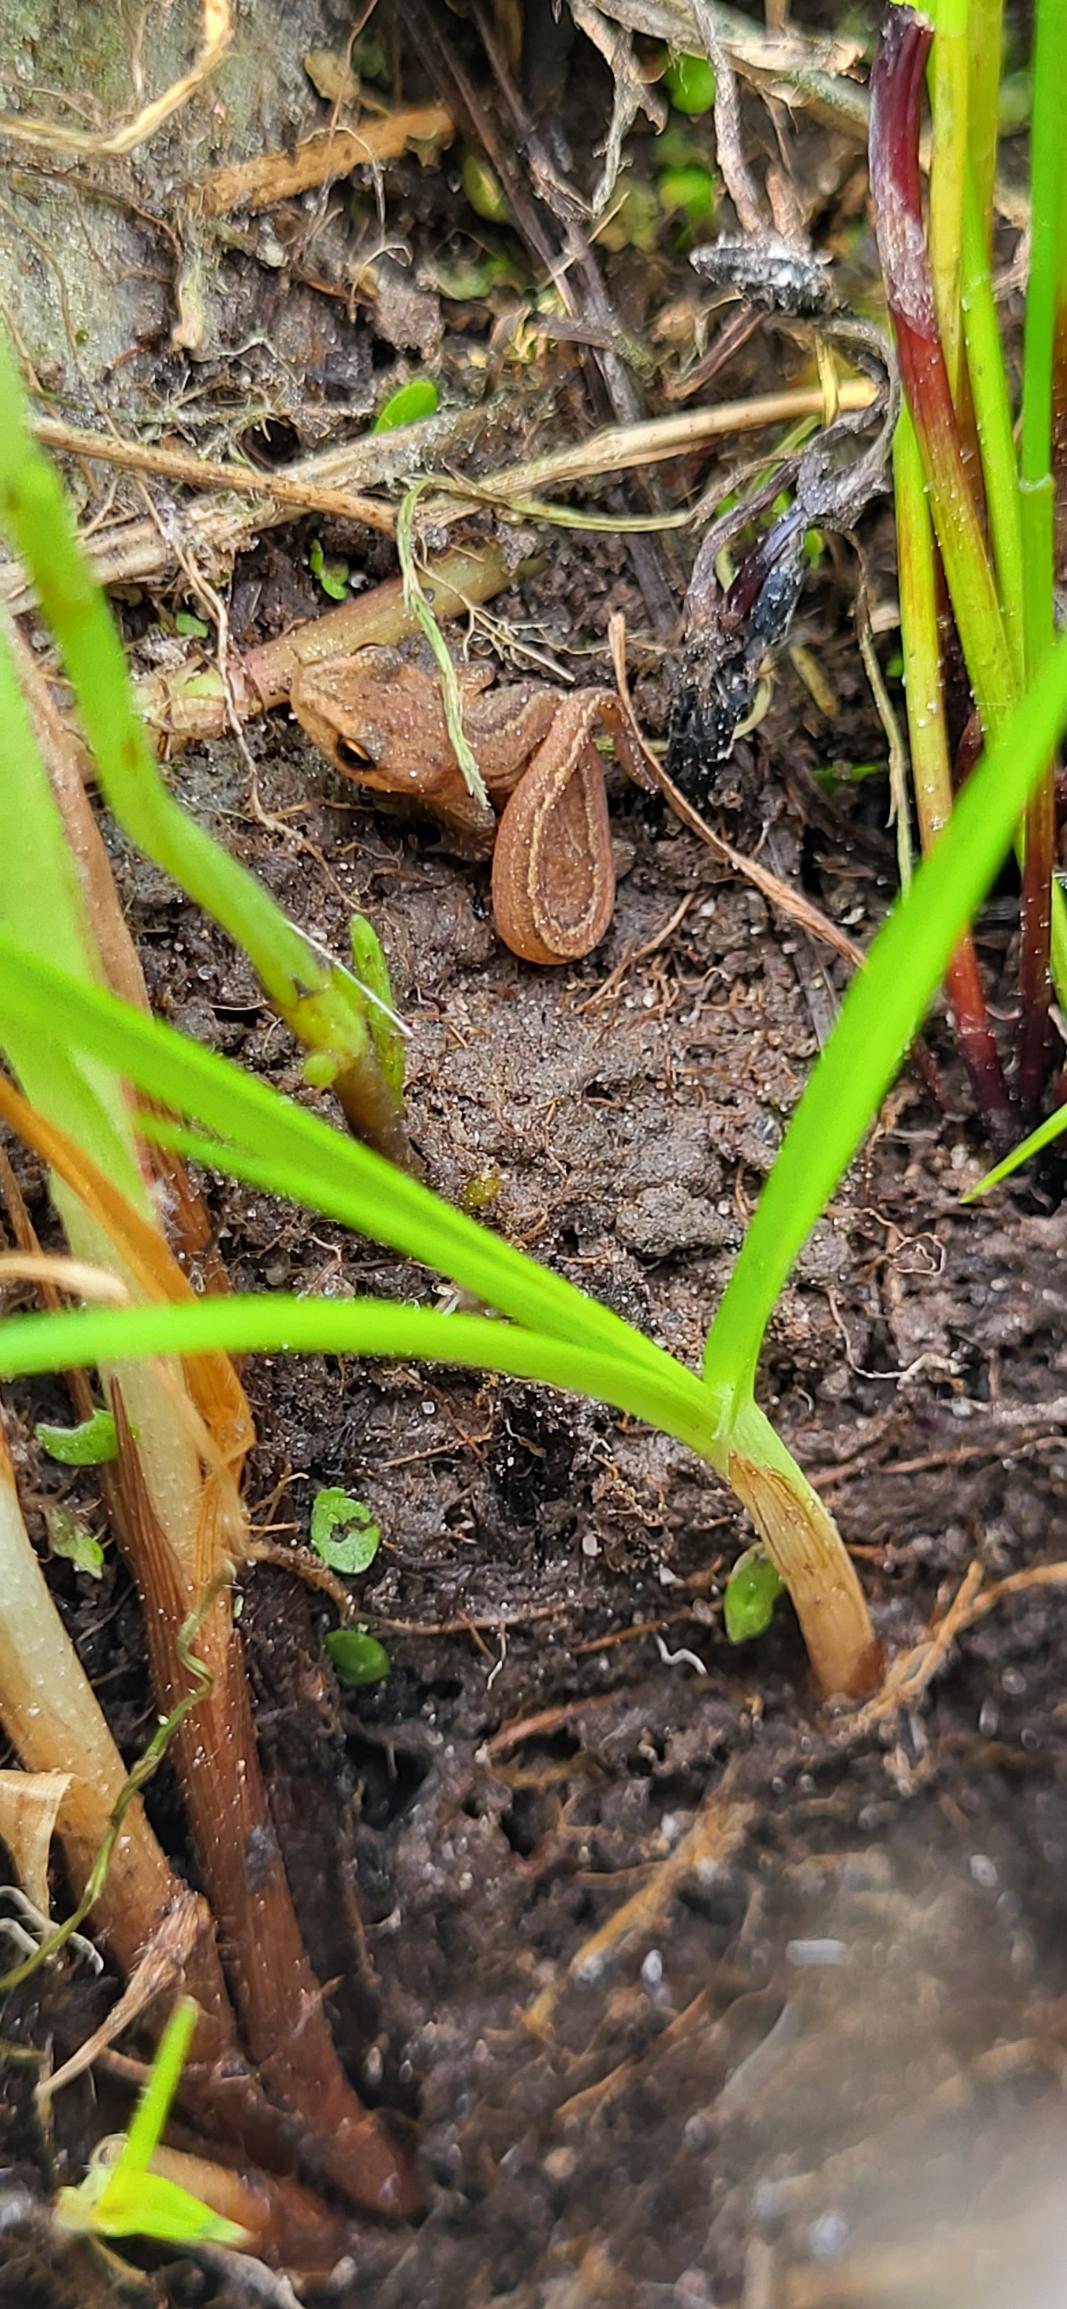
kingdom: Animalia
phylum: Chordata
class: Amphibia
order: Caudata
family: Salamandridae
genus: Lissotriton
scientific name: Lissotriton vulgaris
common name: Lille vandsalamander
